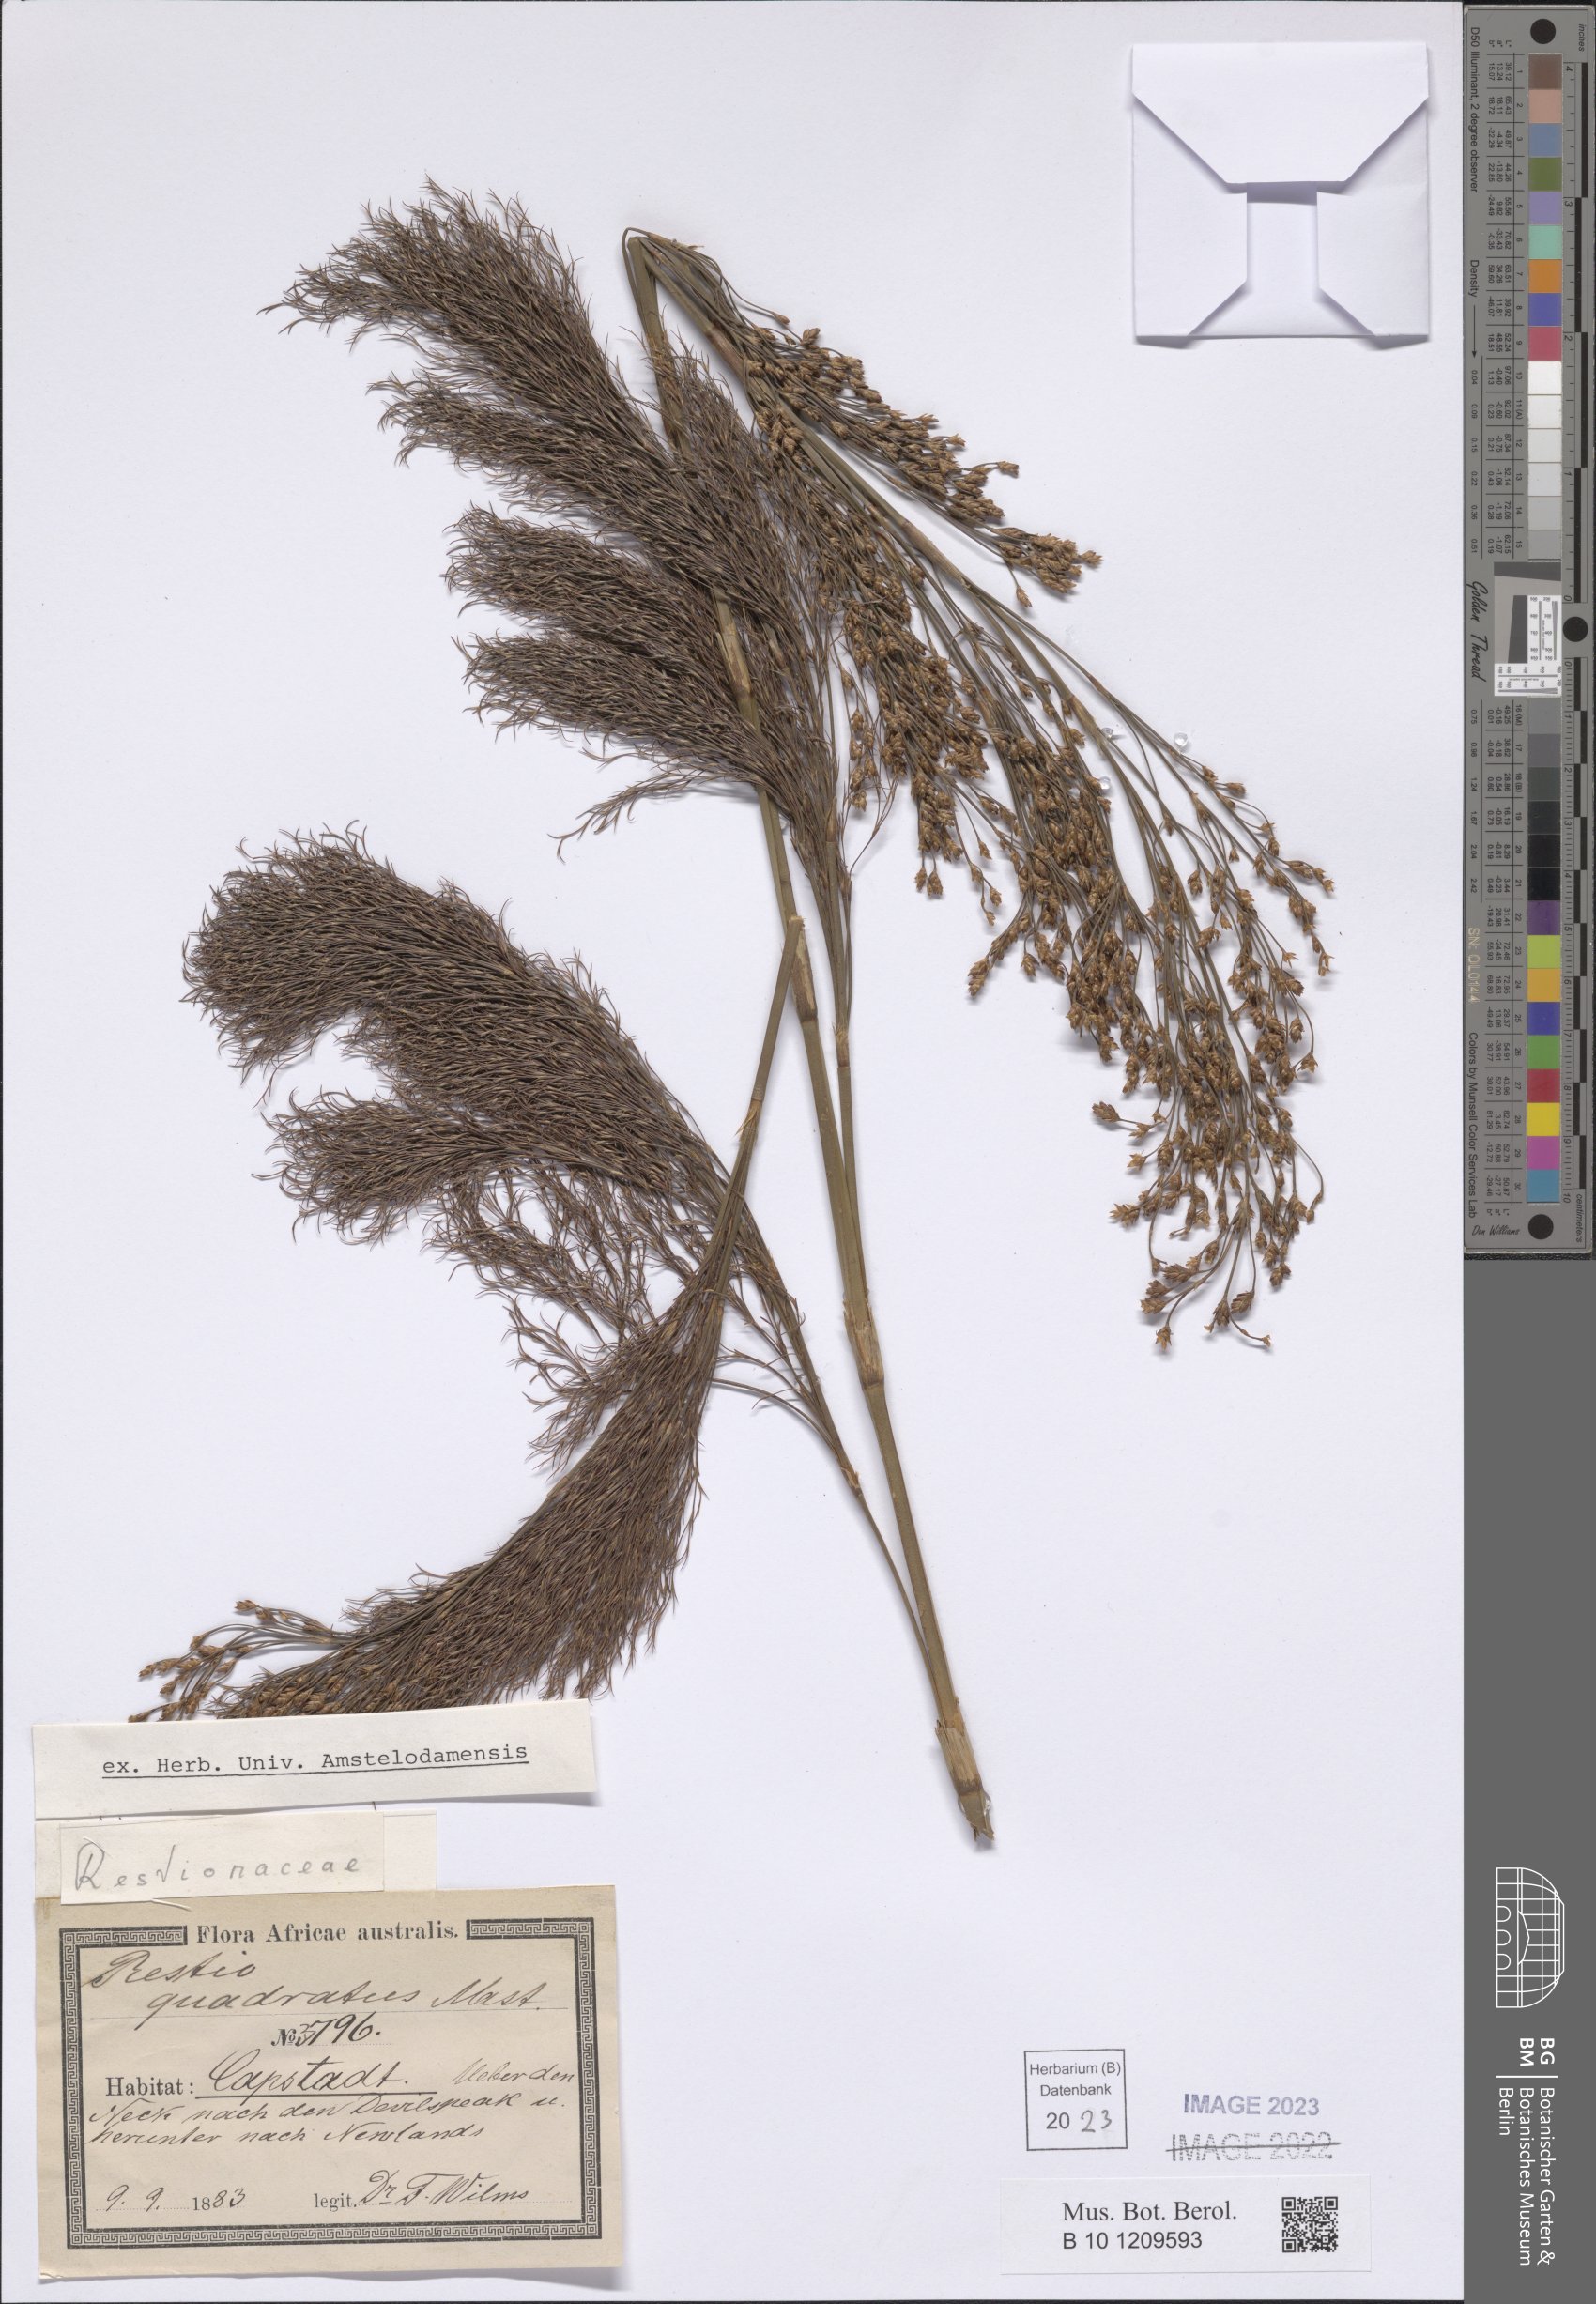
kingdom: Plantae
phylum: Tracheophyta
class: Liliopsida
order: Poales
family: Restionaceae
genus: Restio
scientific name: Restio quadratus
